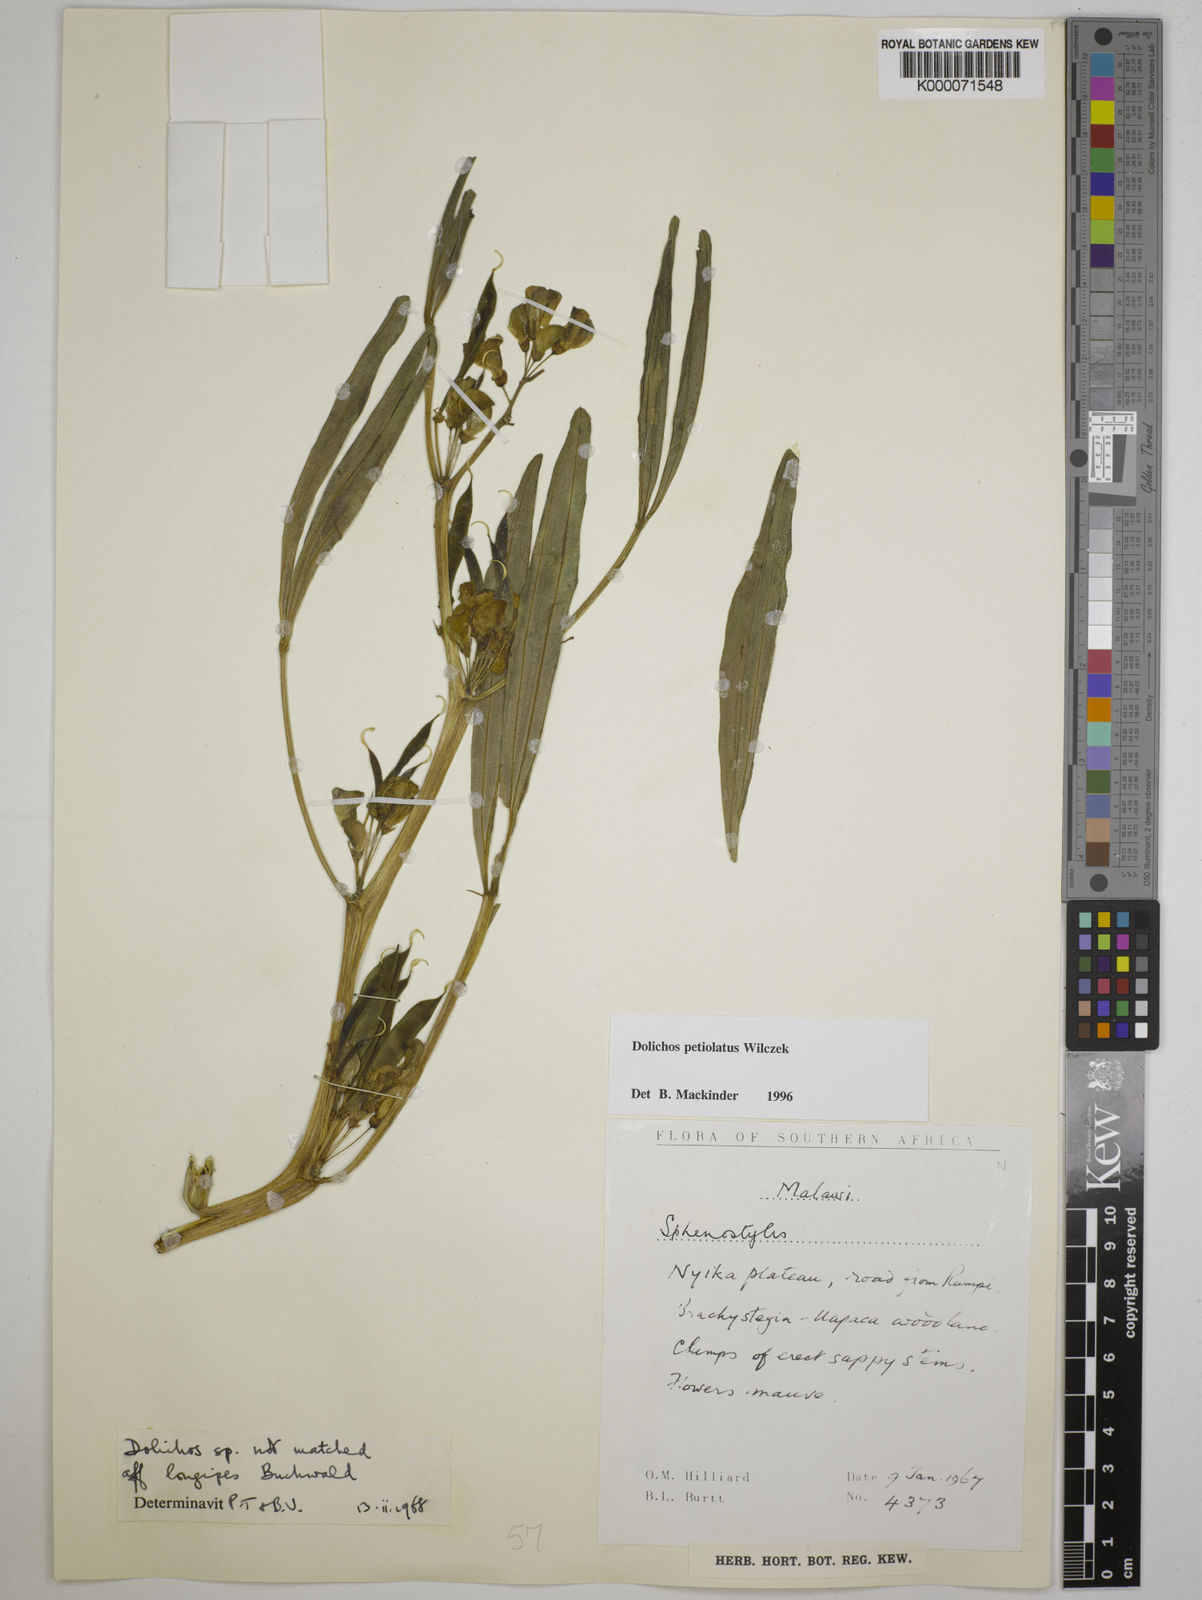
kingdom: Plantae
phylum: Tracheophyta
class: Magnoliopsida
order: Fabales
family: Fabaceae
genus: Dolichos
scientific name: Dolichos petiolatus
